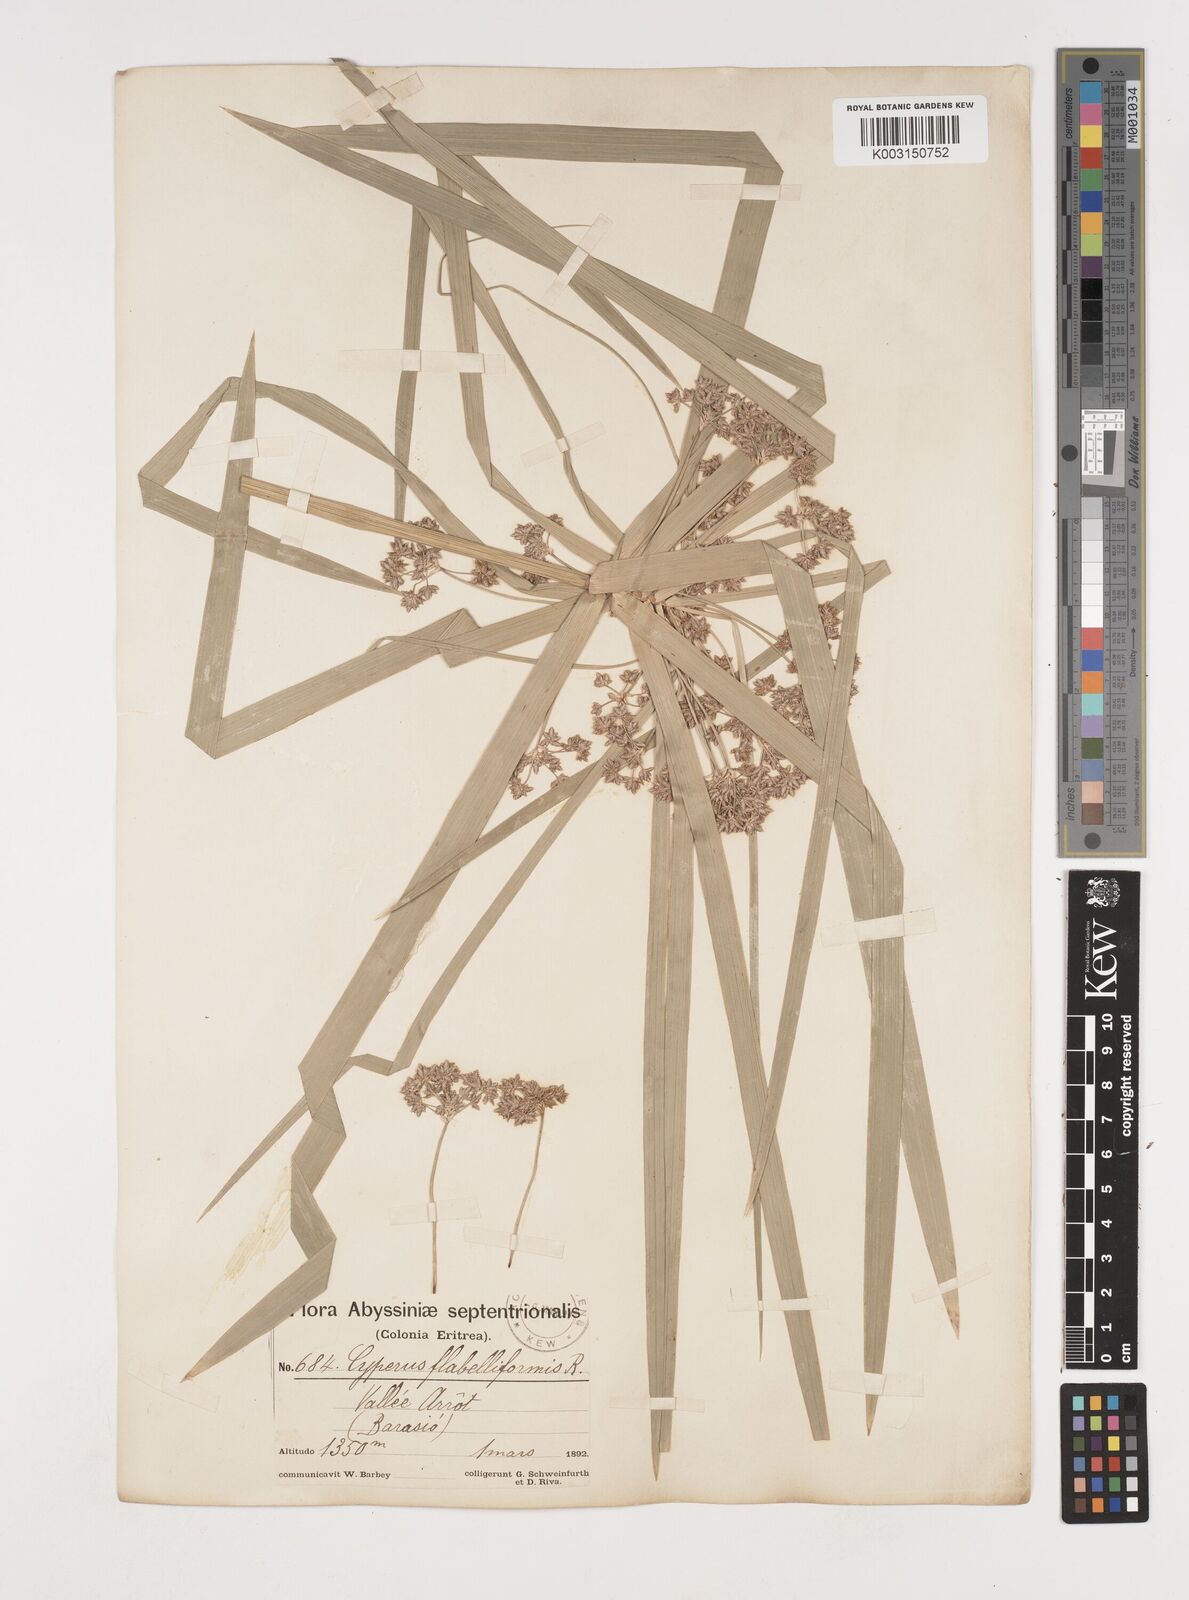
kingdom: Plantae
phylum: Tracheophyta
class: Liliopsida
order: Poales
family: Cyperaceae
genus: Cyperus
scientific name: Cyperus alternifolius
